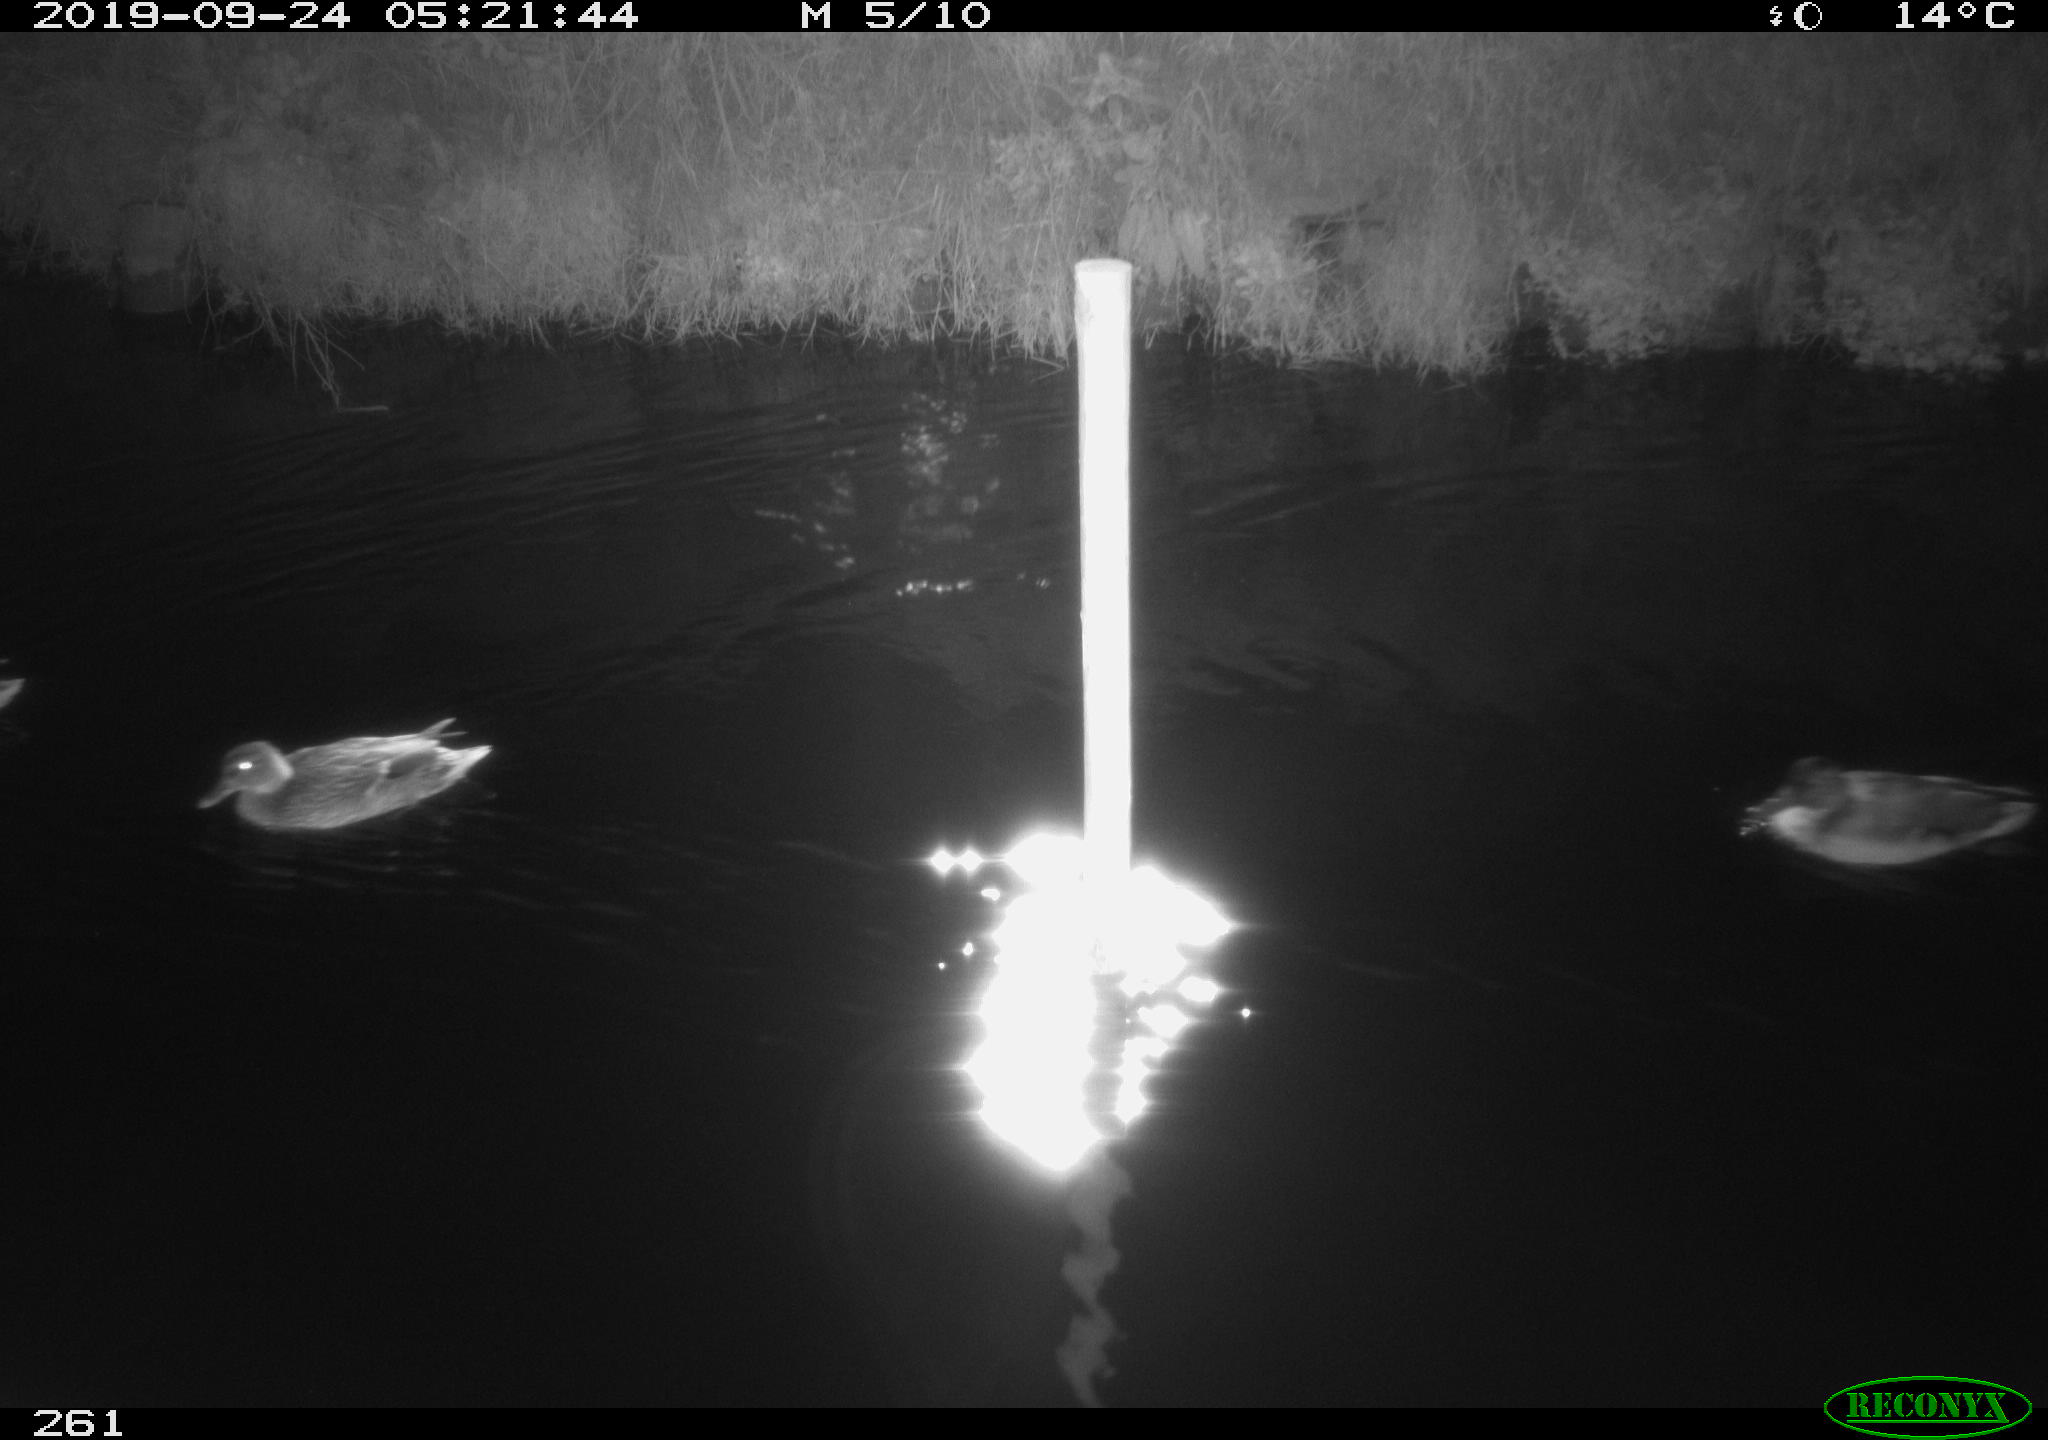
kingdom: Animalia
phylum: Chordata
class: Aves
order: Anseriformes
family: Anatidae
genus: Anas
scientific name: Anas platyrhynchos
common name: Mallard
